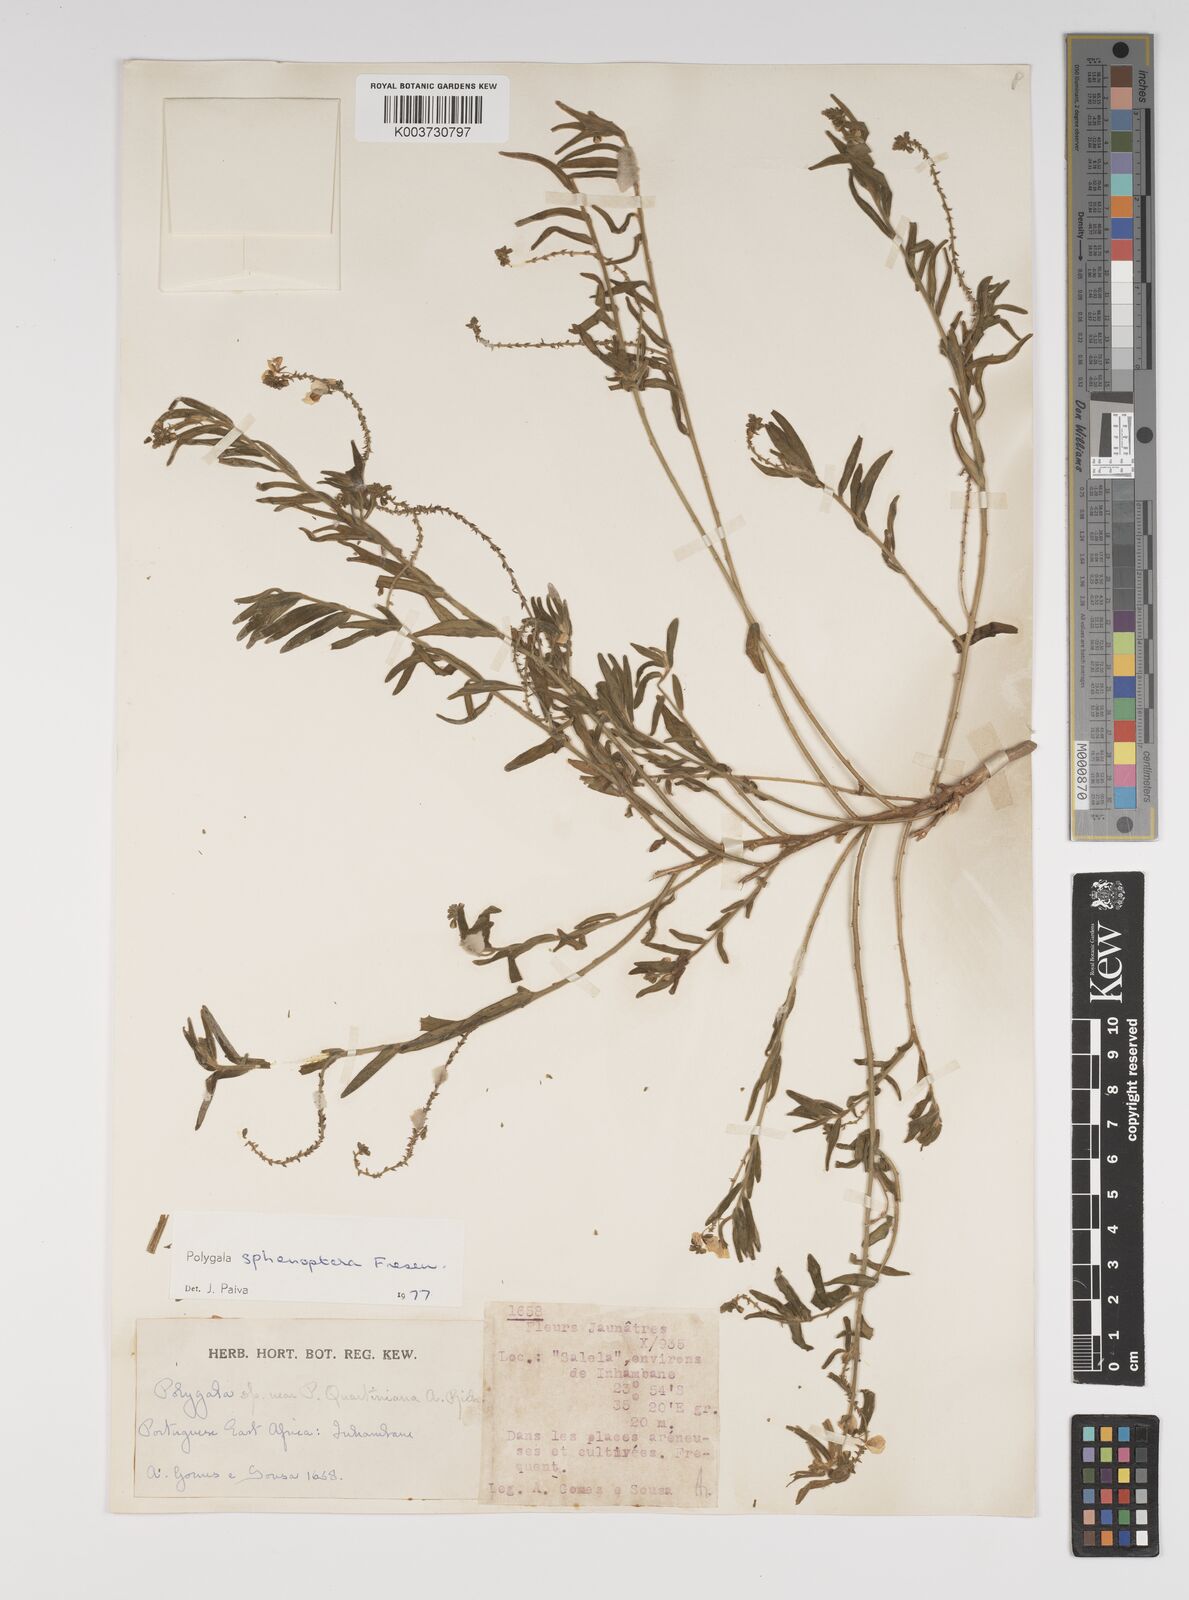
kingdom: Plantae
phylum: Tracheophyta
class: Magnoliopsida
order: Fabales
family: Polygalaceae
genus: Polygala
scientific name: Polygala sphenoptera
